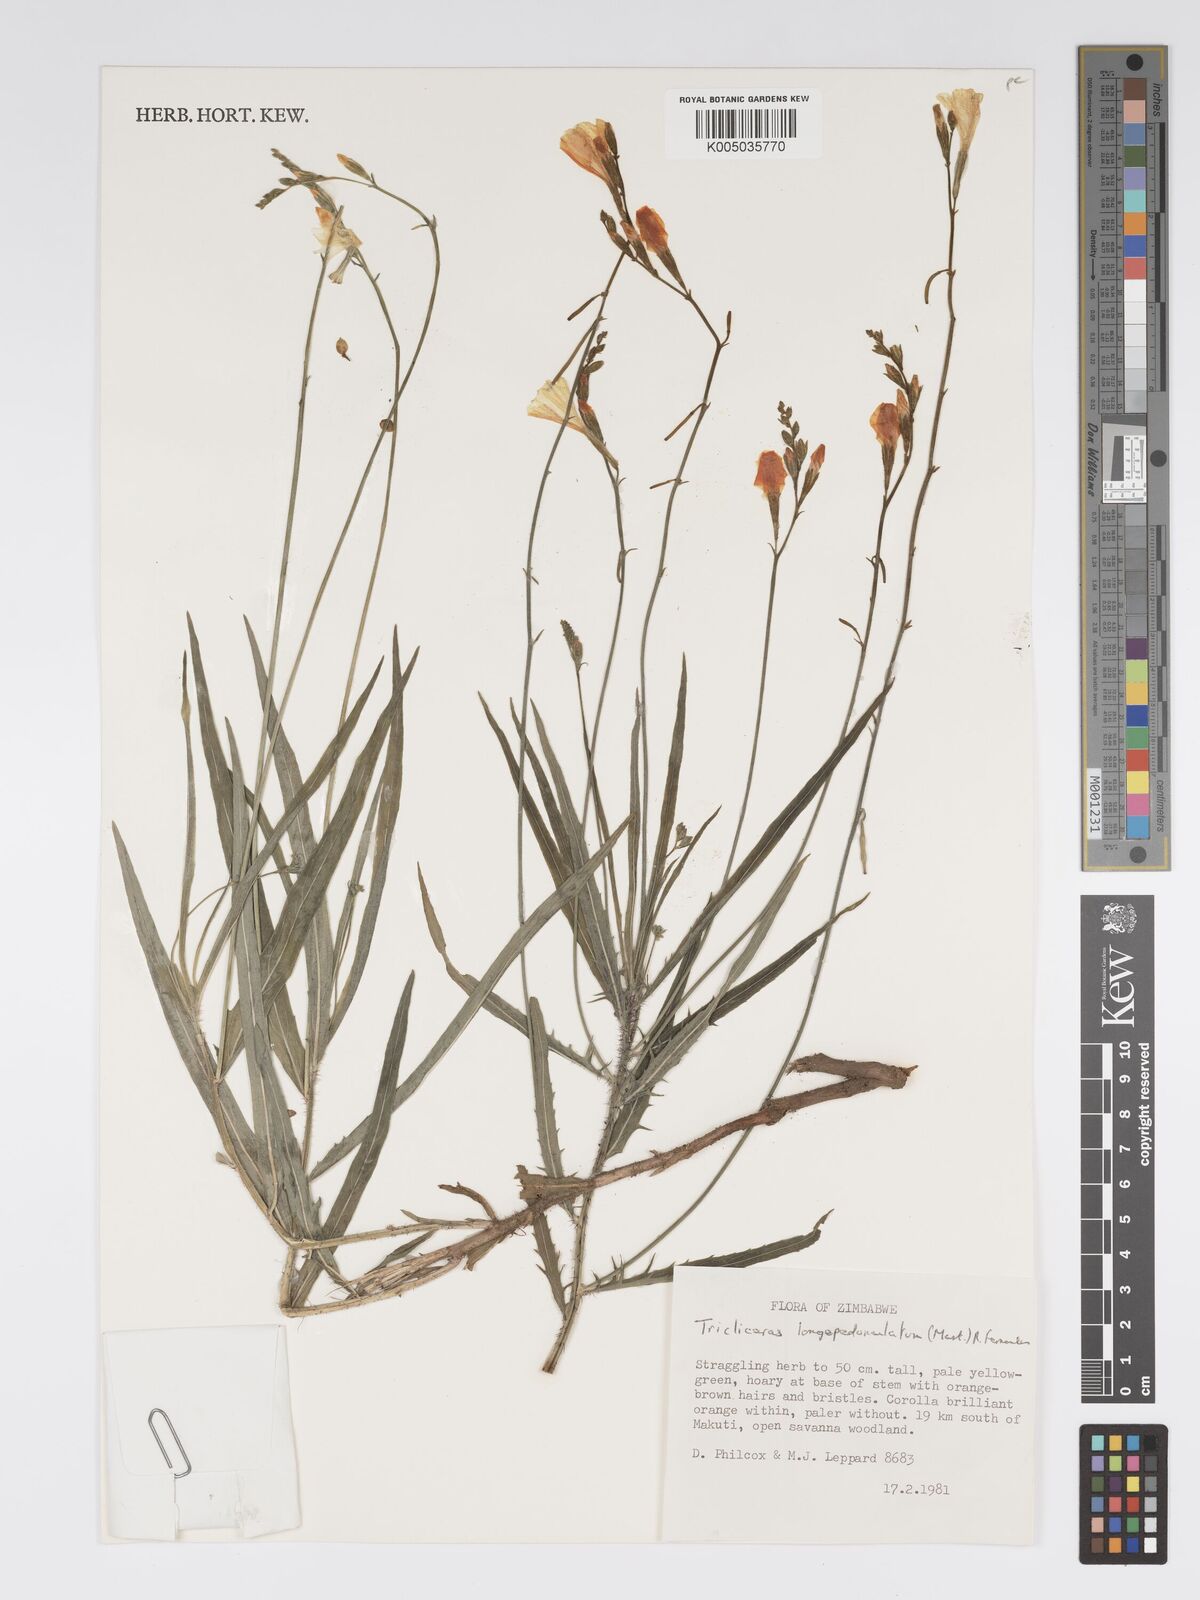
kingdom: Plantae
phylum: Tracheophyta
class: Magnoliopsida
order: Malpighiales
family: Turneraceae
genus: Tricliceras
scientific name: Tricliceras
